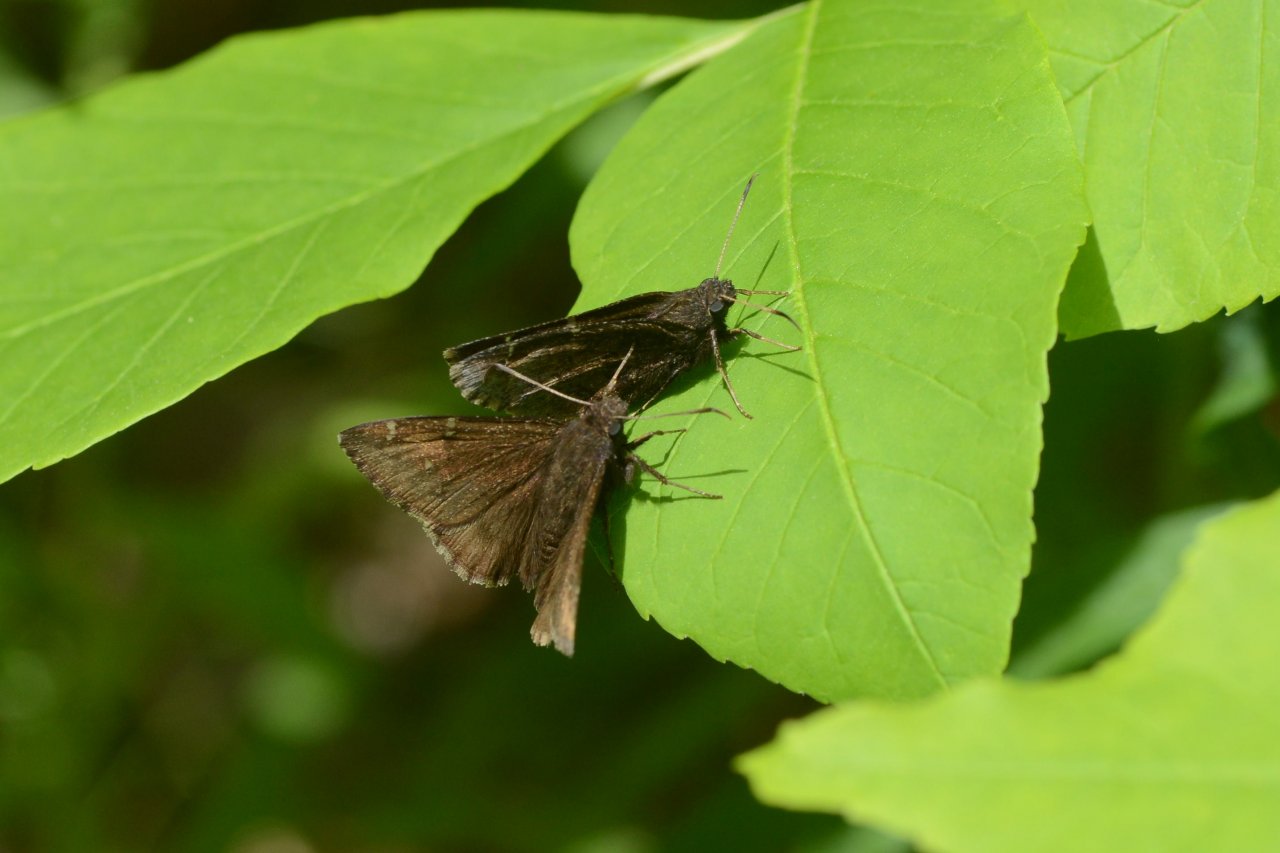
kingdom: Animalia
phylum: Arthropoda
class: Insecta
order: Lepidoptera
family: Hesperiidae
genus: Autochton
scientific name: Autochton
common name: Northern Cloudywing
